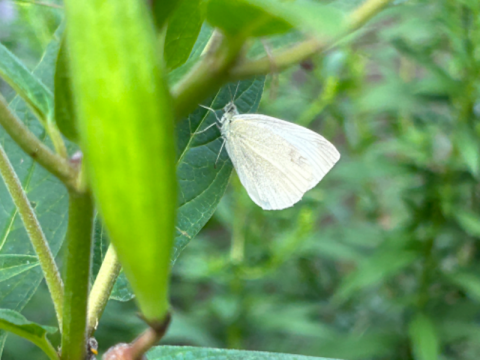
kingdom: Animalia
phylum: Arthropoda
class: Insecta
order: Lepidoptera
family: Pieridae
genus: Pieris
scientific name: Pieris rapae
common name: Cabbage White
